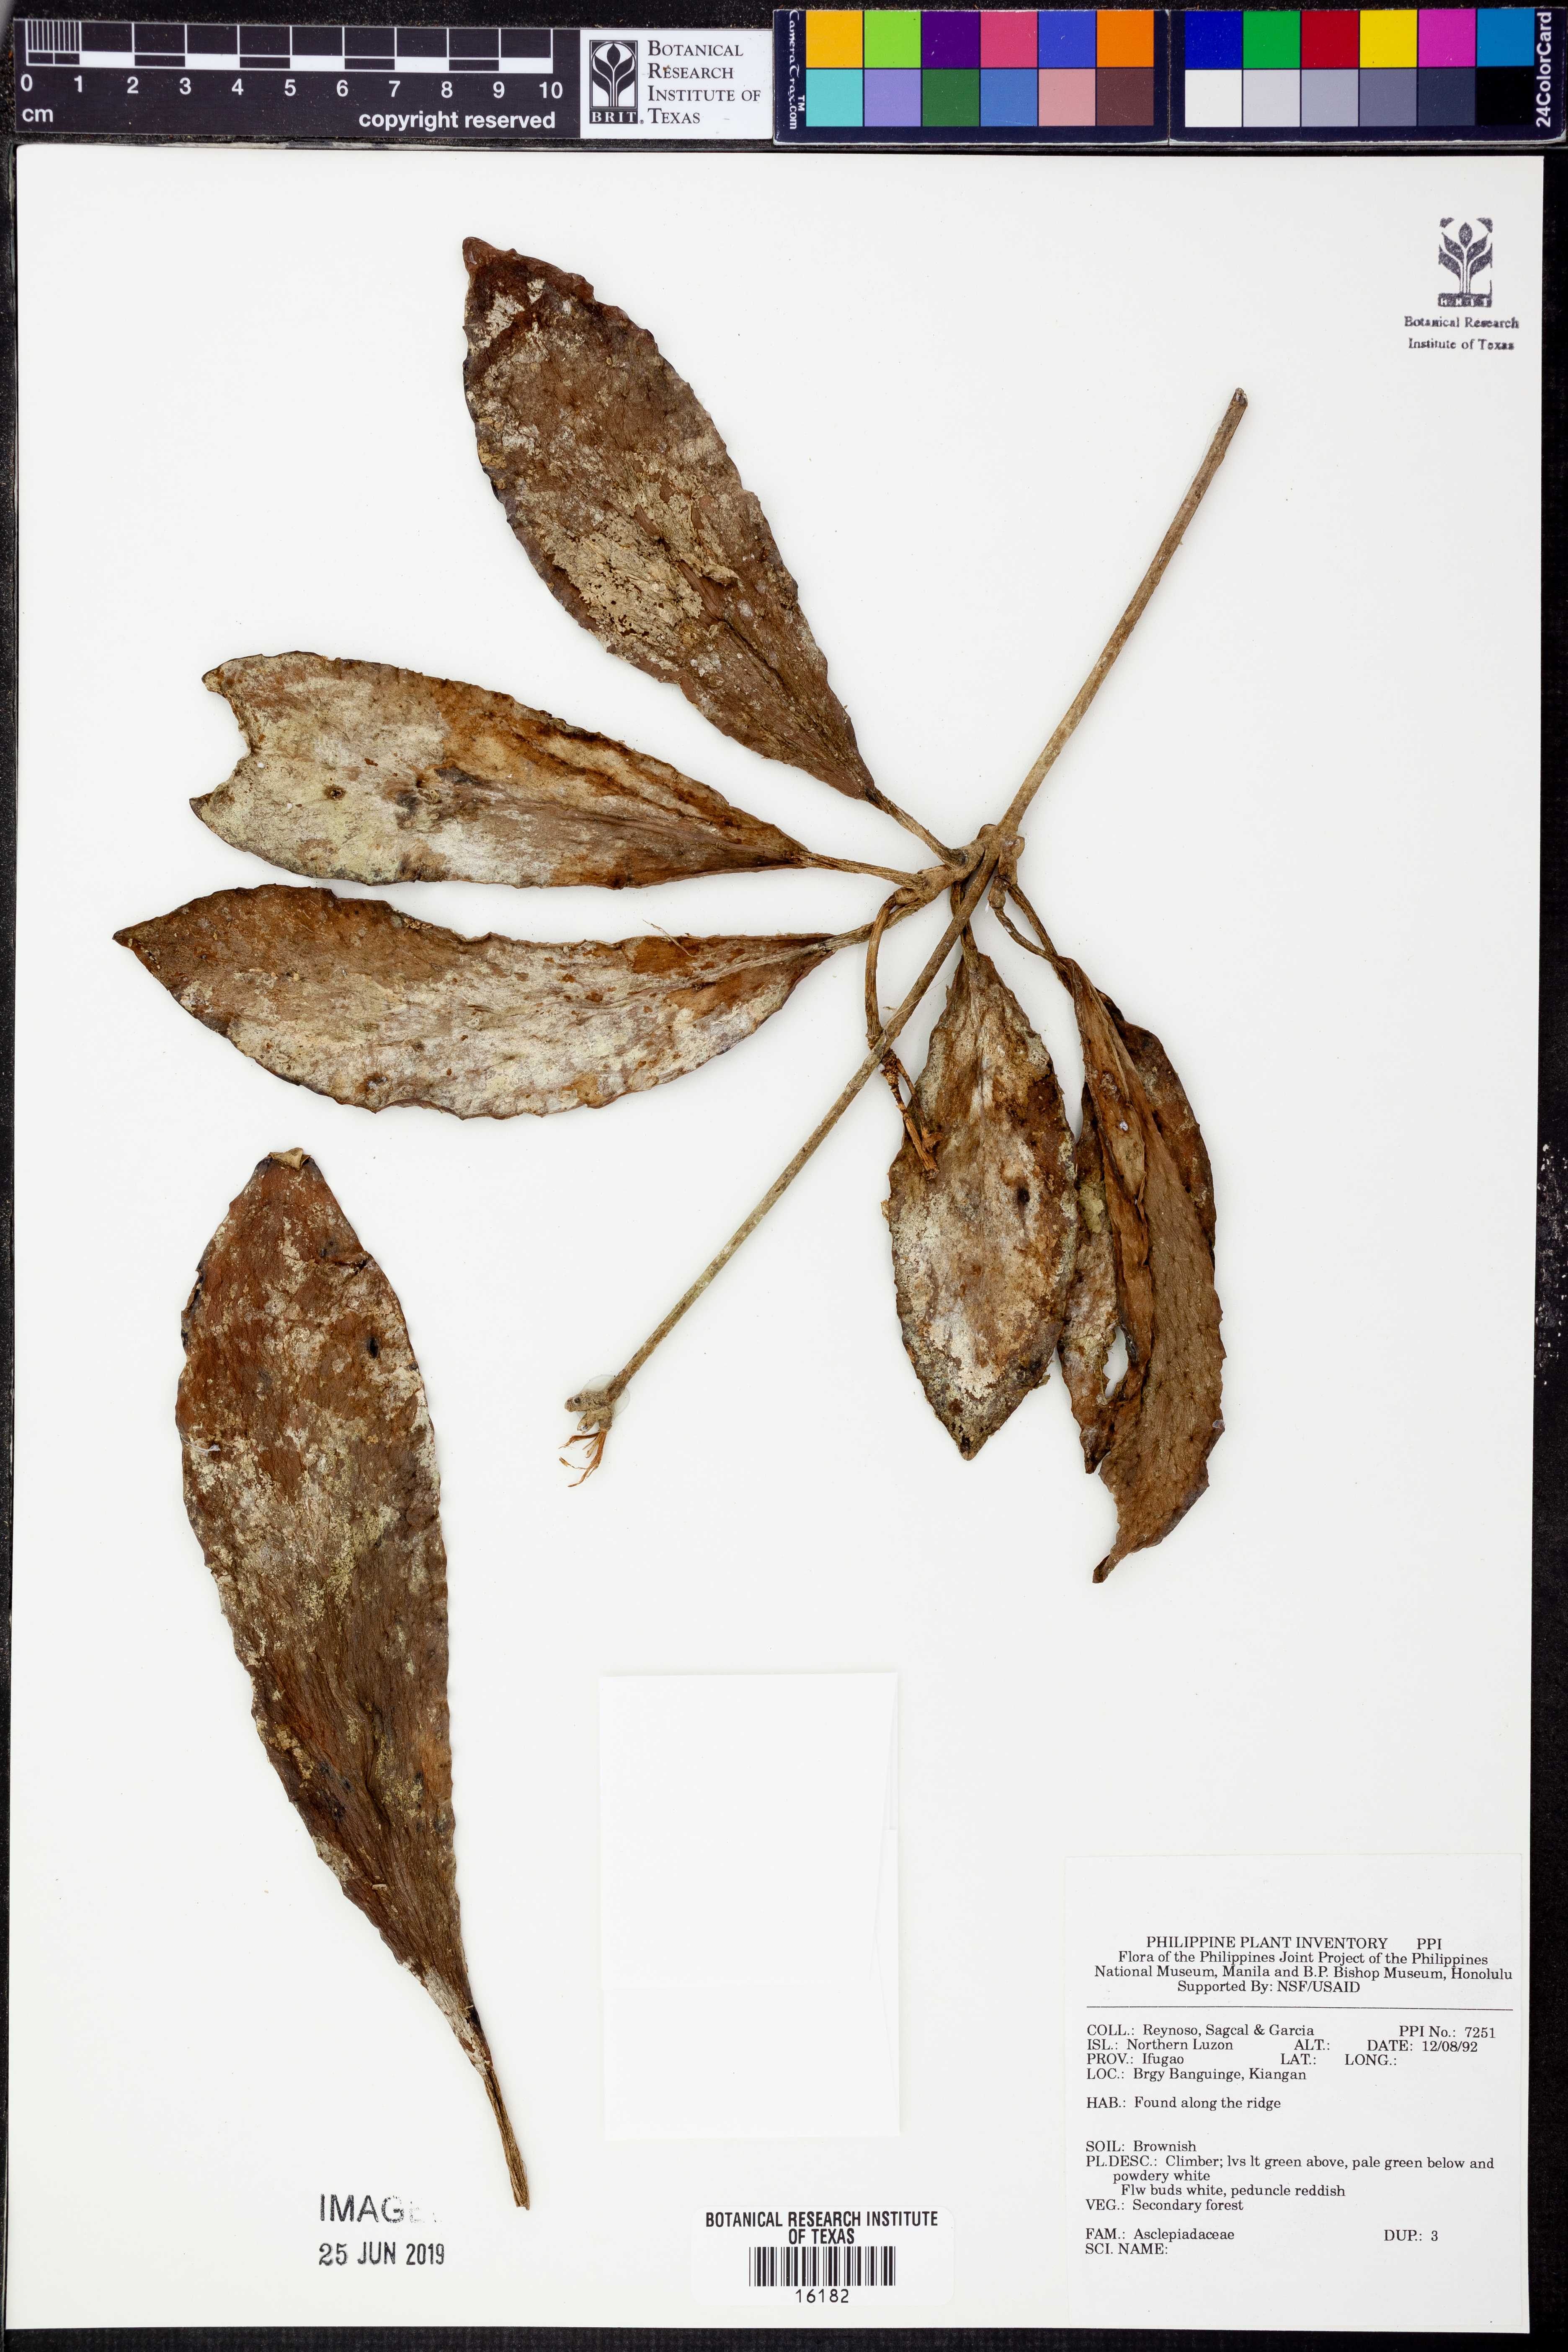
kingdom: Plantae
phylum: Tracheophyta
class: Magnoliopsida
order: Gentianales
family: Apocynaceae
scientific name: Apocynaceae
